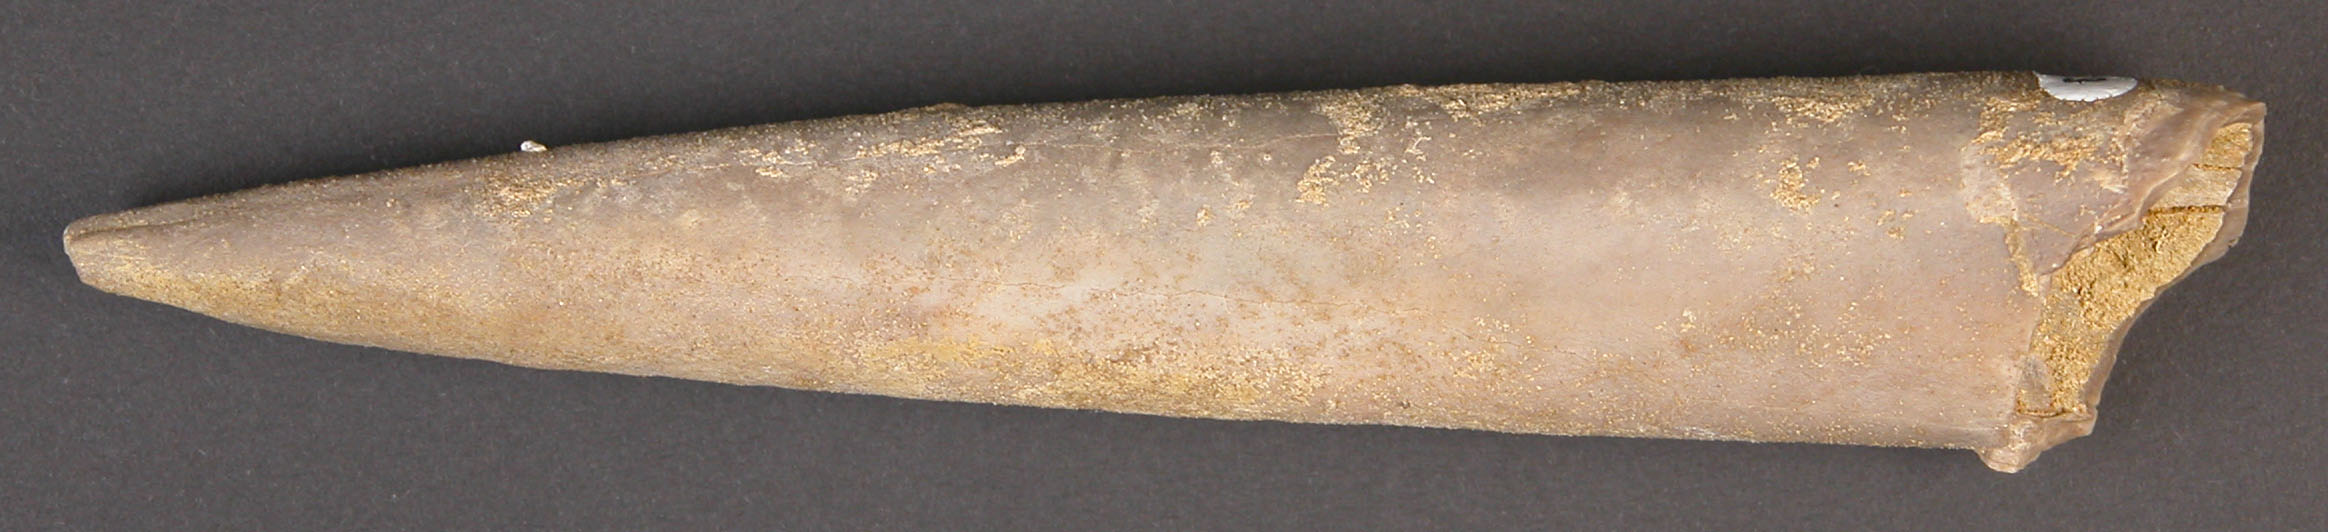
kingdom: Animalia
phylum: Mollusca
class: Cephalopoda
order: Belemnitida
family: Megateuthididae
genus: Megateuthis
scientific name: Megateuthis
